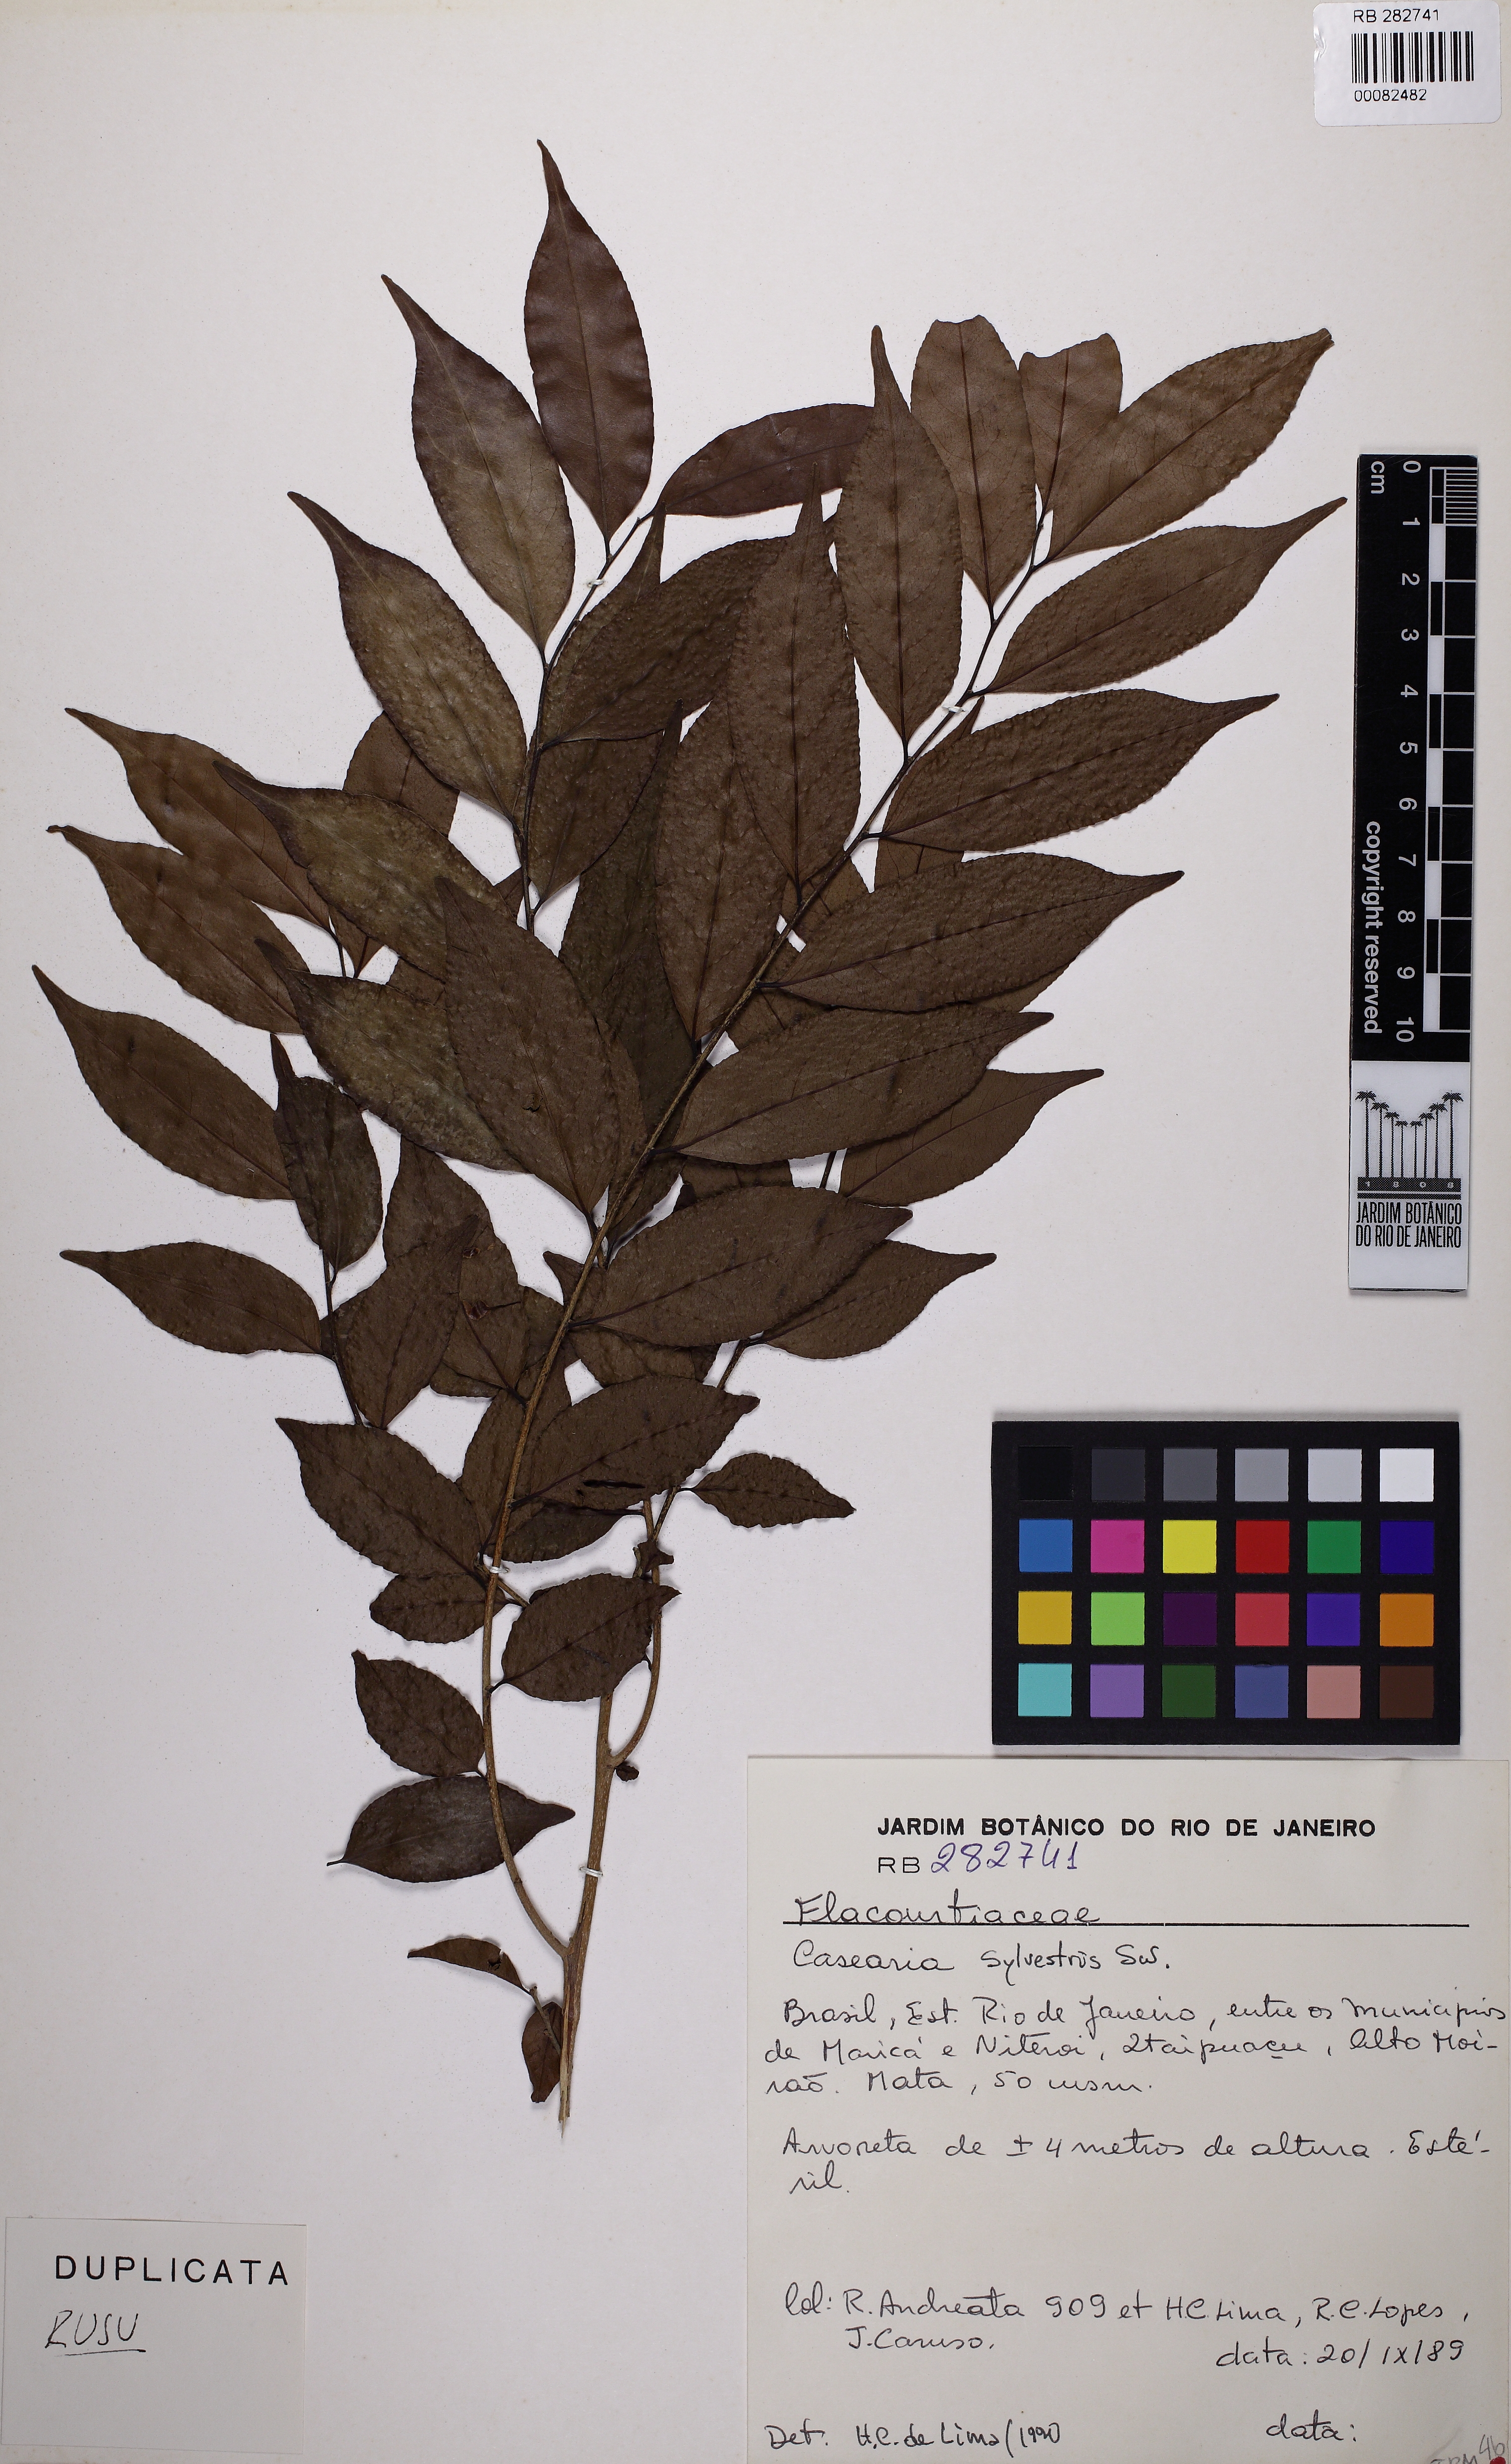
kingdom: Plantae
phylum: Tracheophyta
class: Magnoliopsida
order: Malpighiales
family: Salicaceae
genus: Casearia
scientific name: Casearia sylvestris
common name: Wild sage
